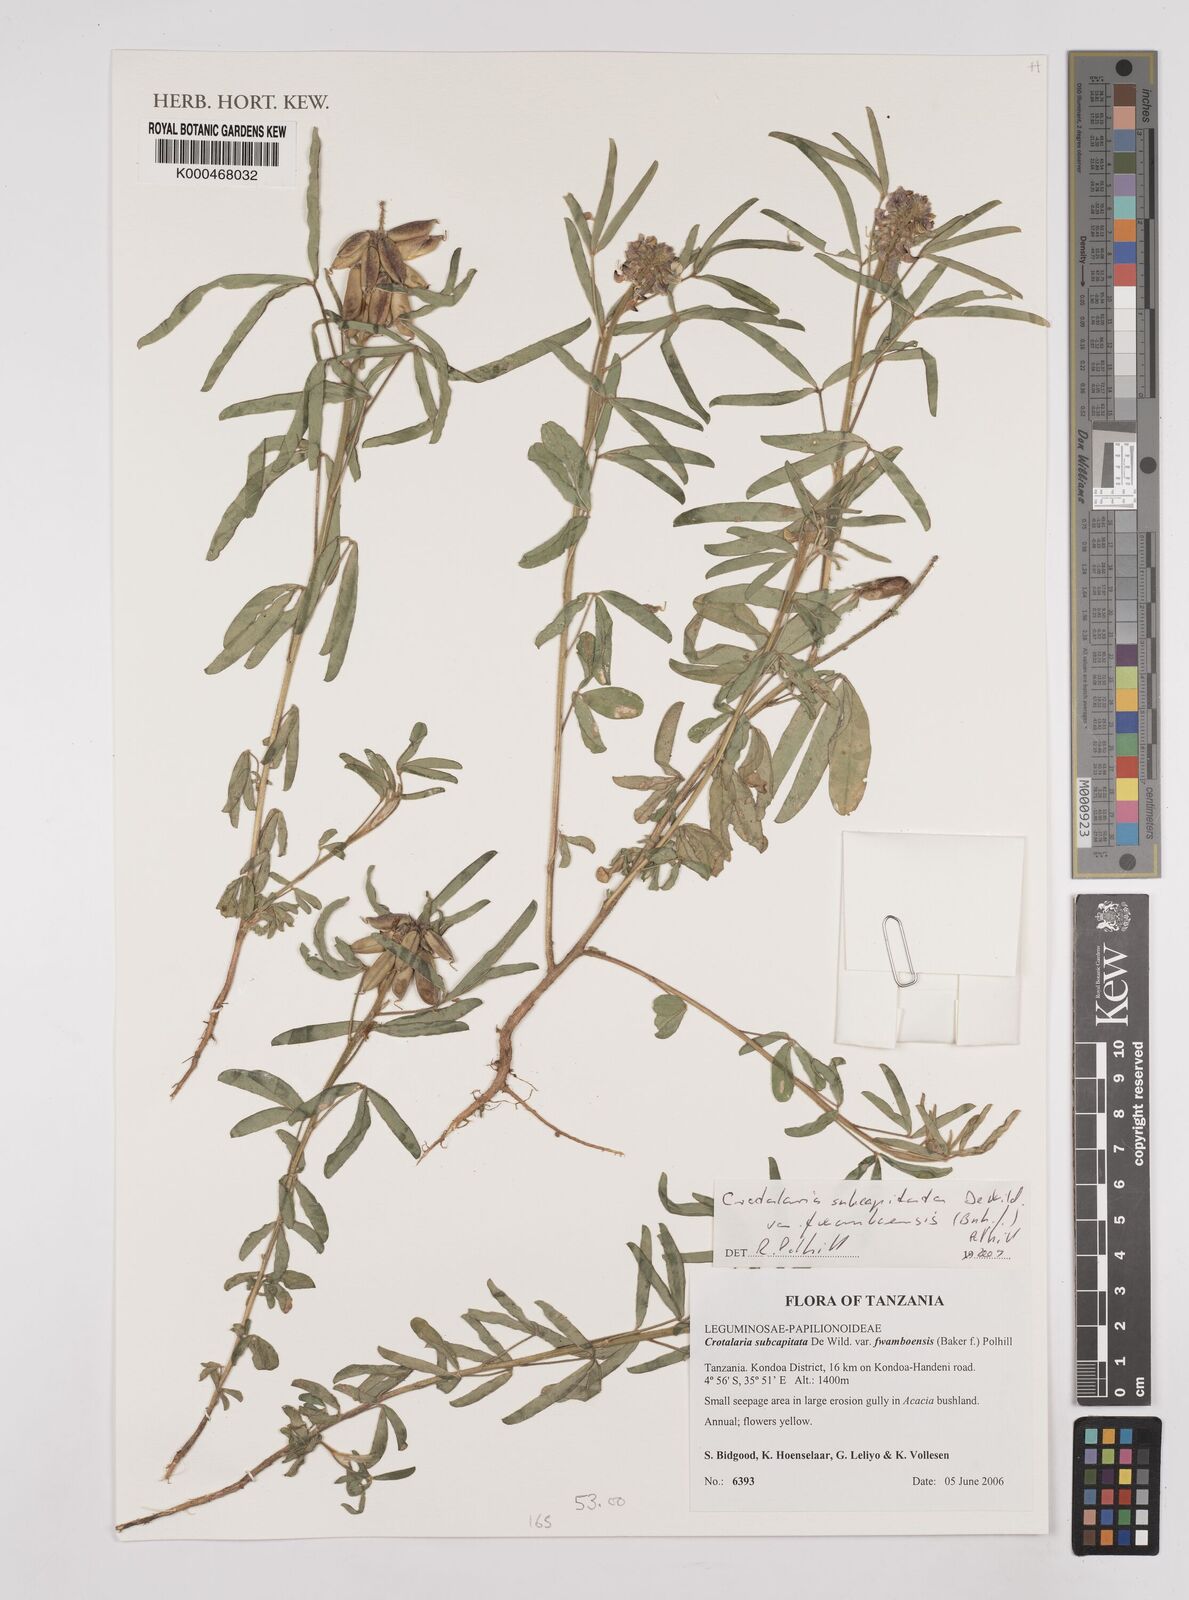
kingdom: Plantae
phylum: Tracheophyta
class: Magnoliopsida
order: Fabales
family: Fabaceae
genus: Crotalaria
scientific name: Crotalaria subcapitata
